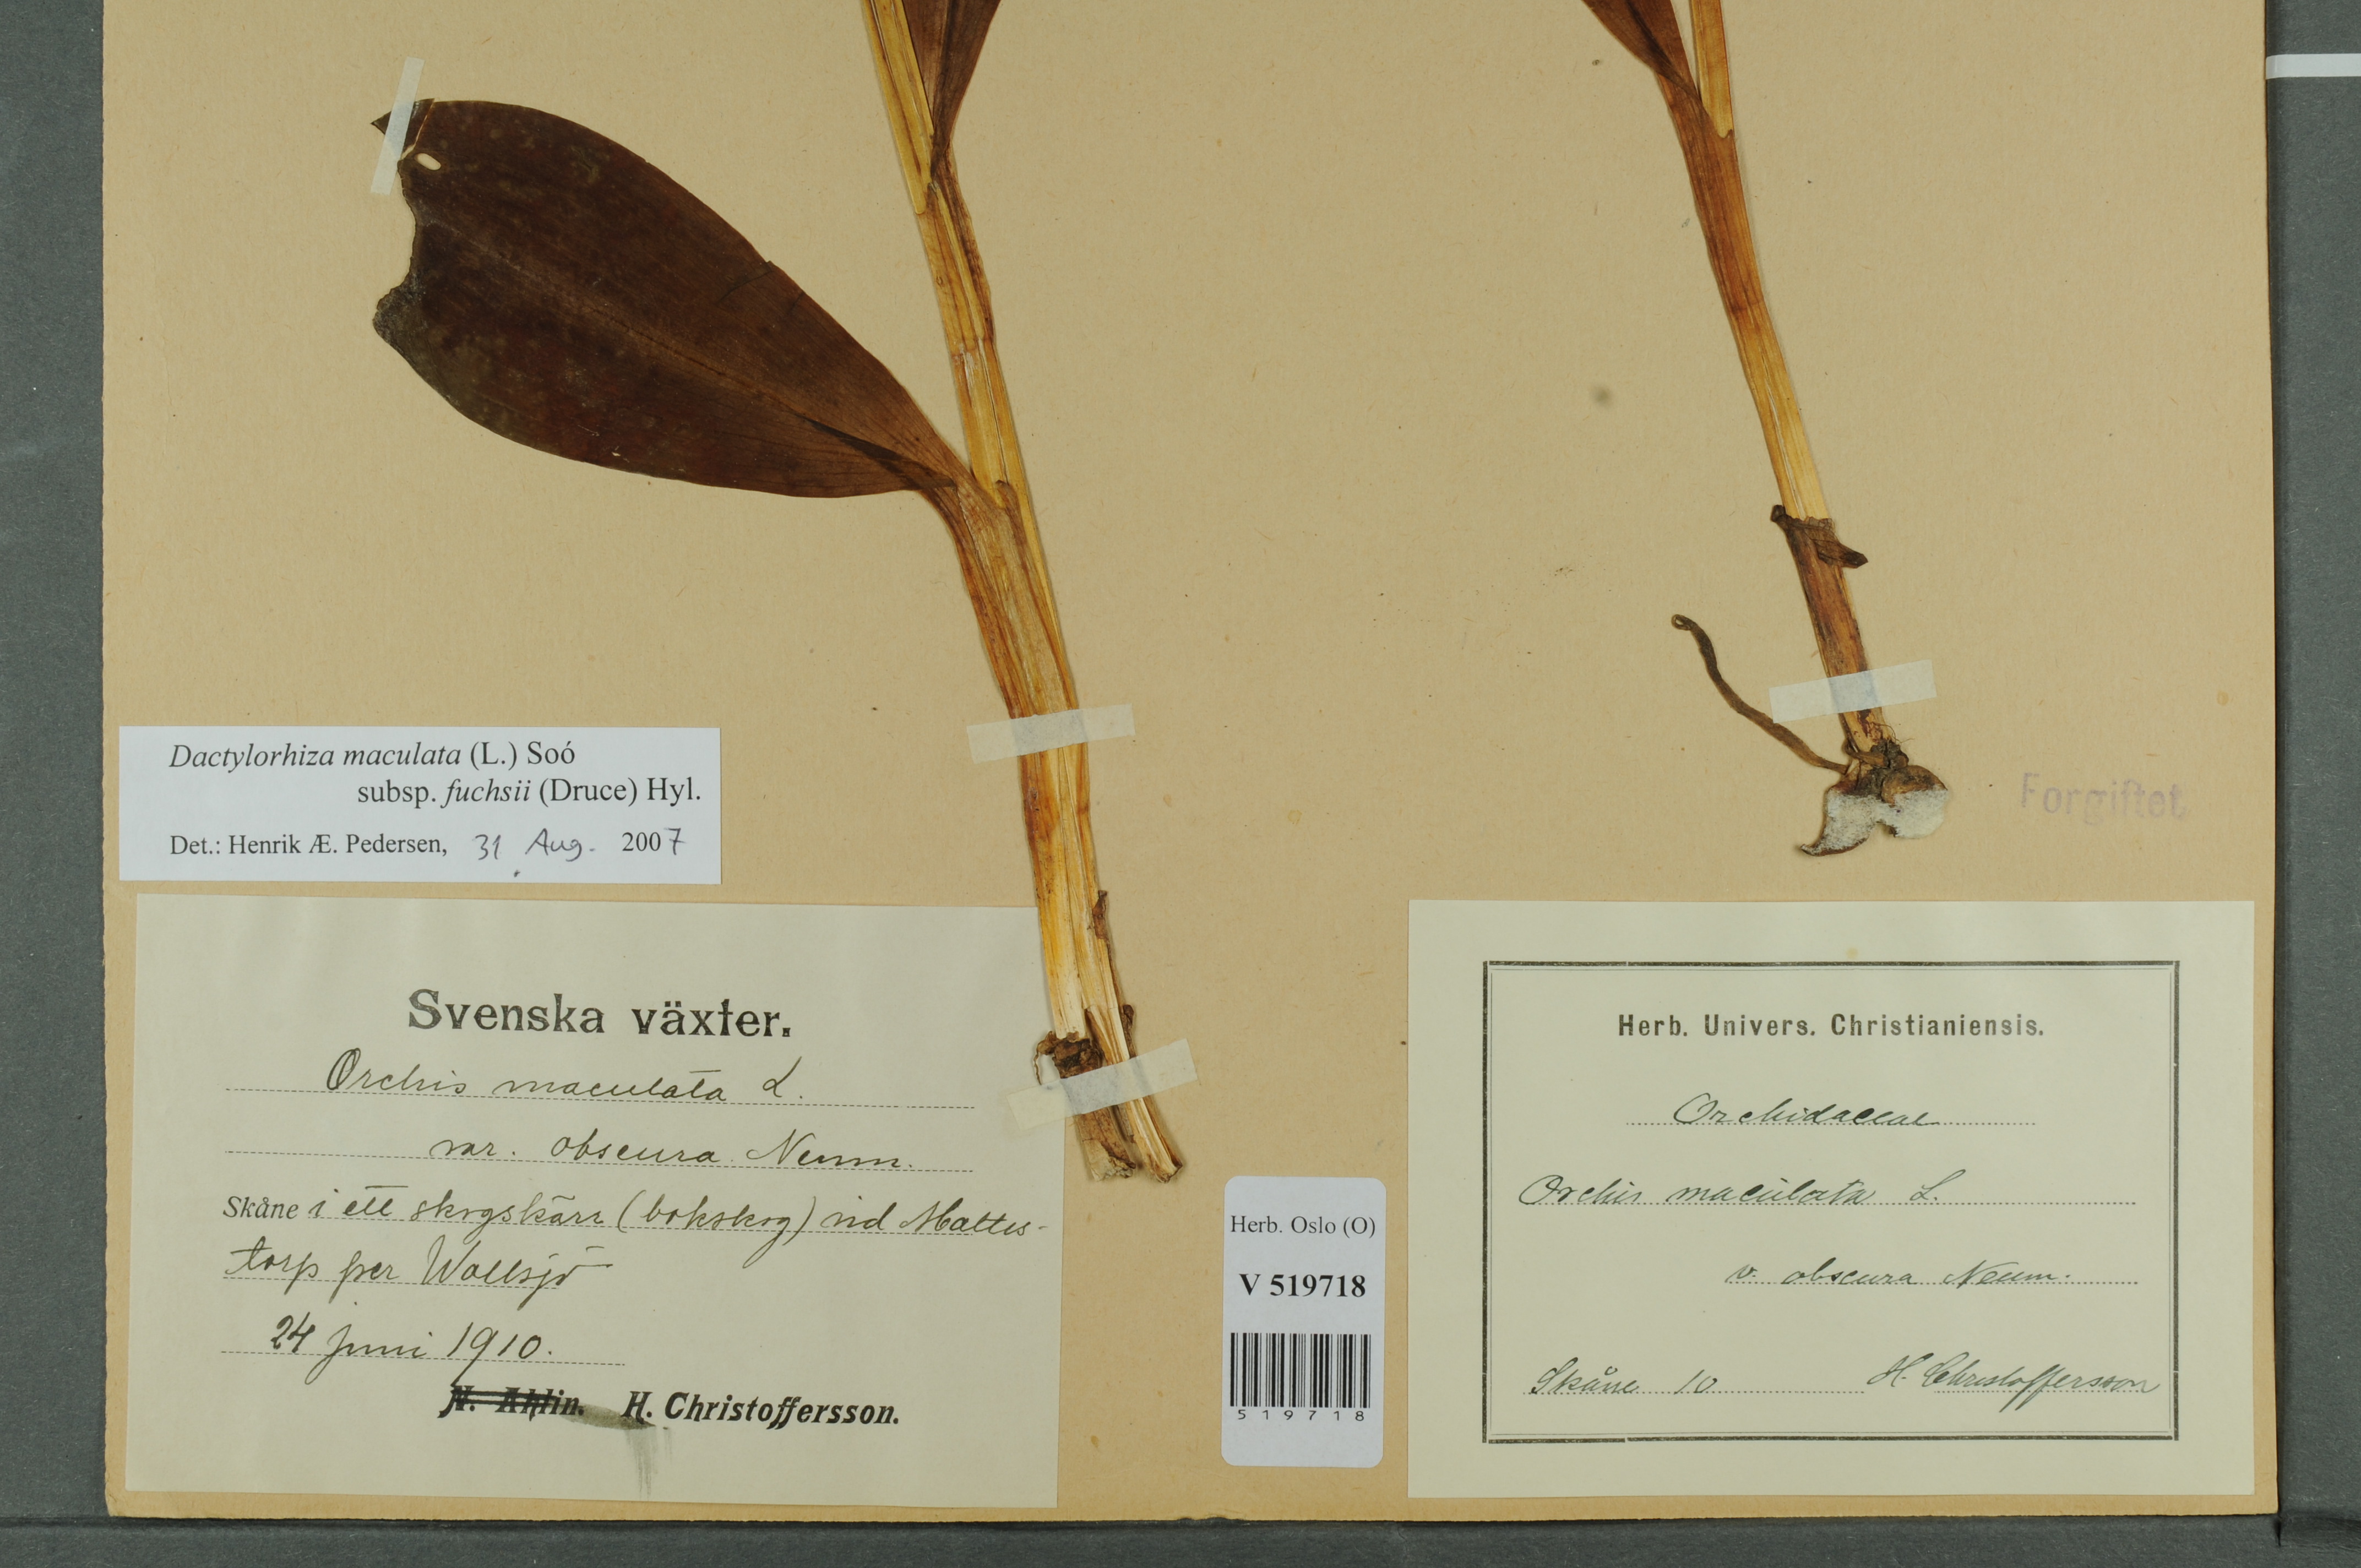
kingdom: Plantae
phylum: Tracheophyta
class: Liliopsida
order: Asparagales
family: Orchidaceae
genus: Dactylorhiza
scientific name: Dactylorhiza maculata
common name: Heath spotted-orchid
